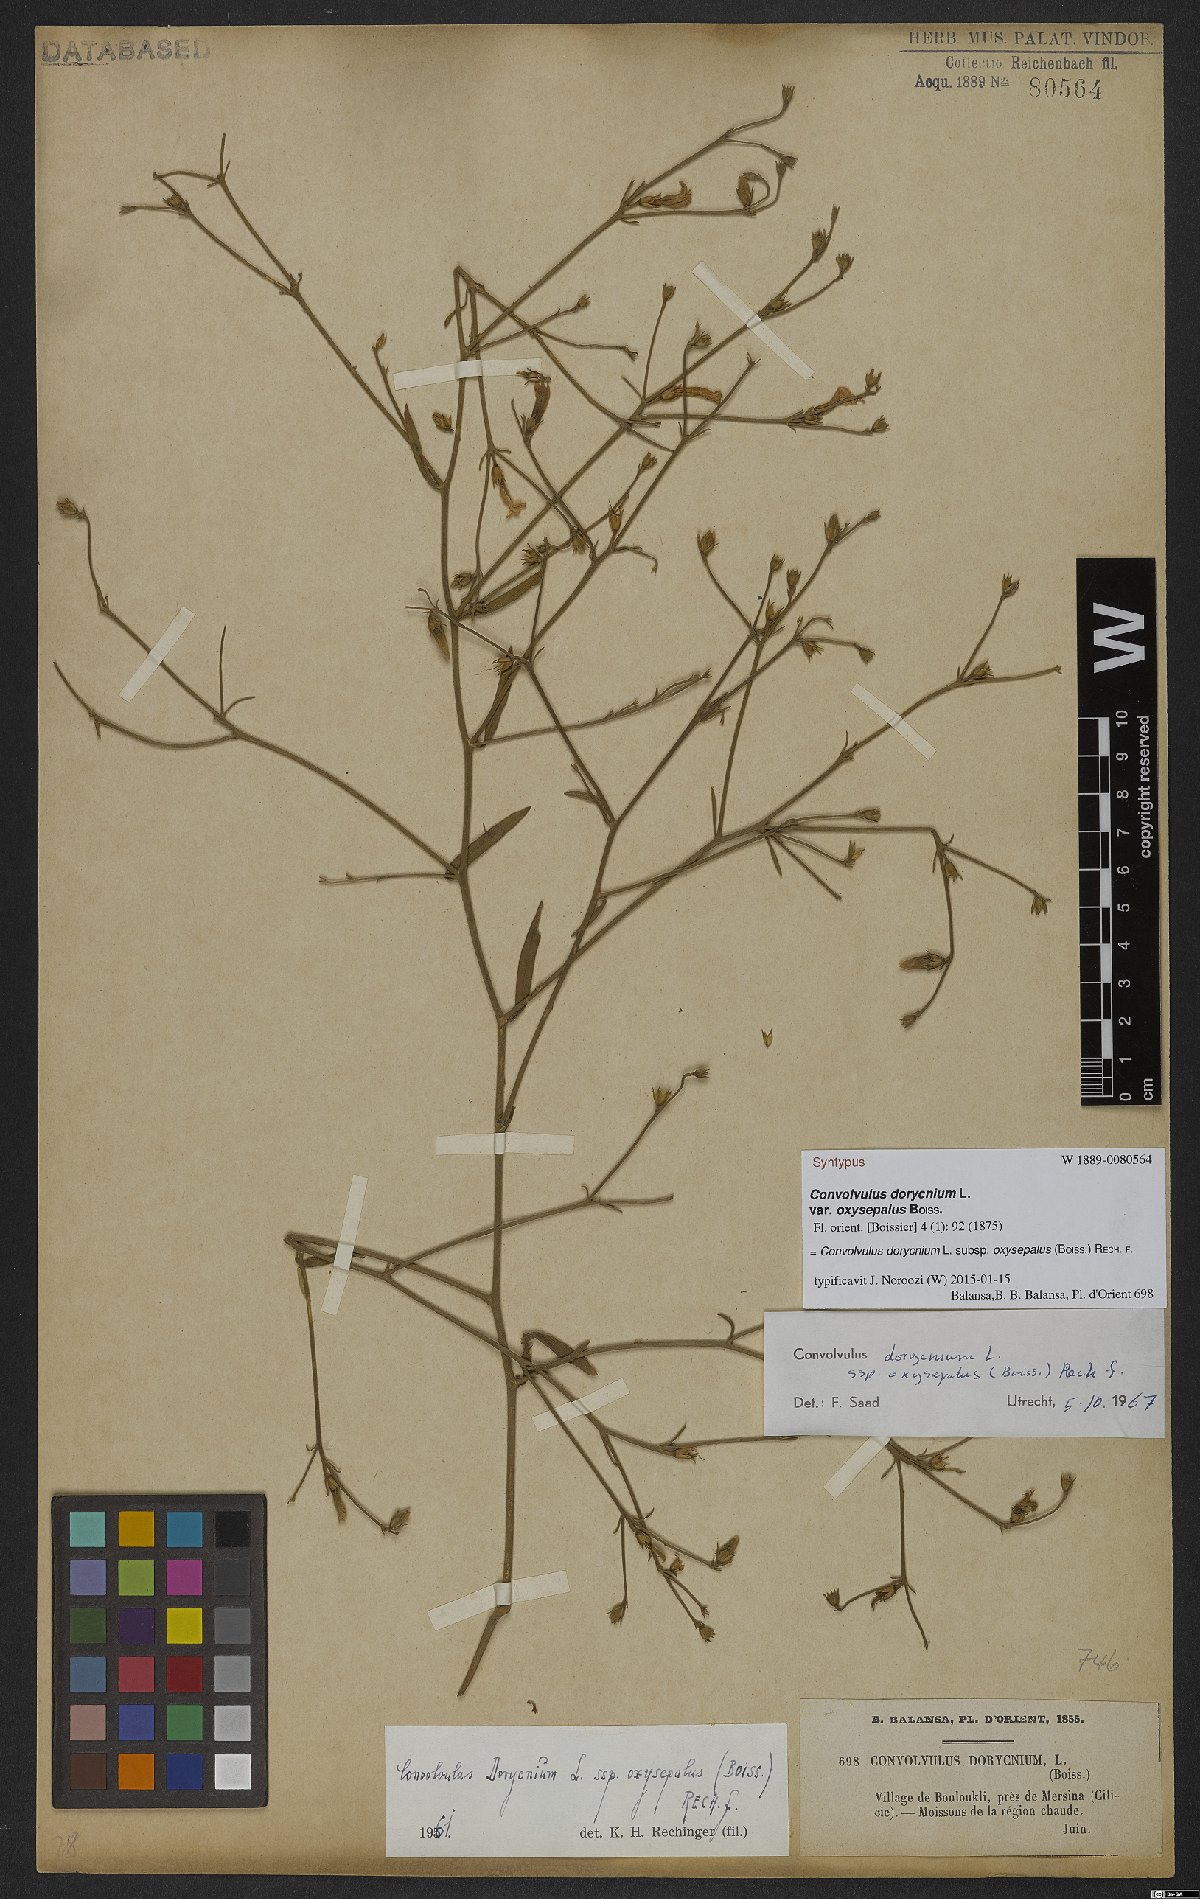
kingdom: Plantae
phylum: Tracheophyta
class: Magnoliopsida
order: Solanales
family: Convolvulaceae
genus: Convolvulus
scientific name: Convolvulus dorycnium
